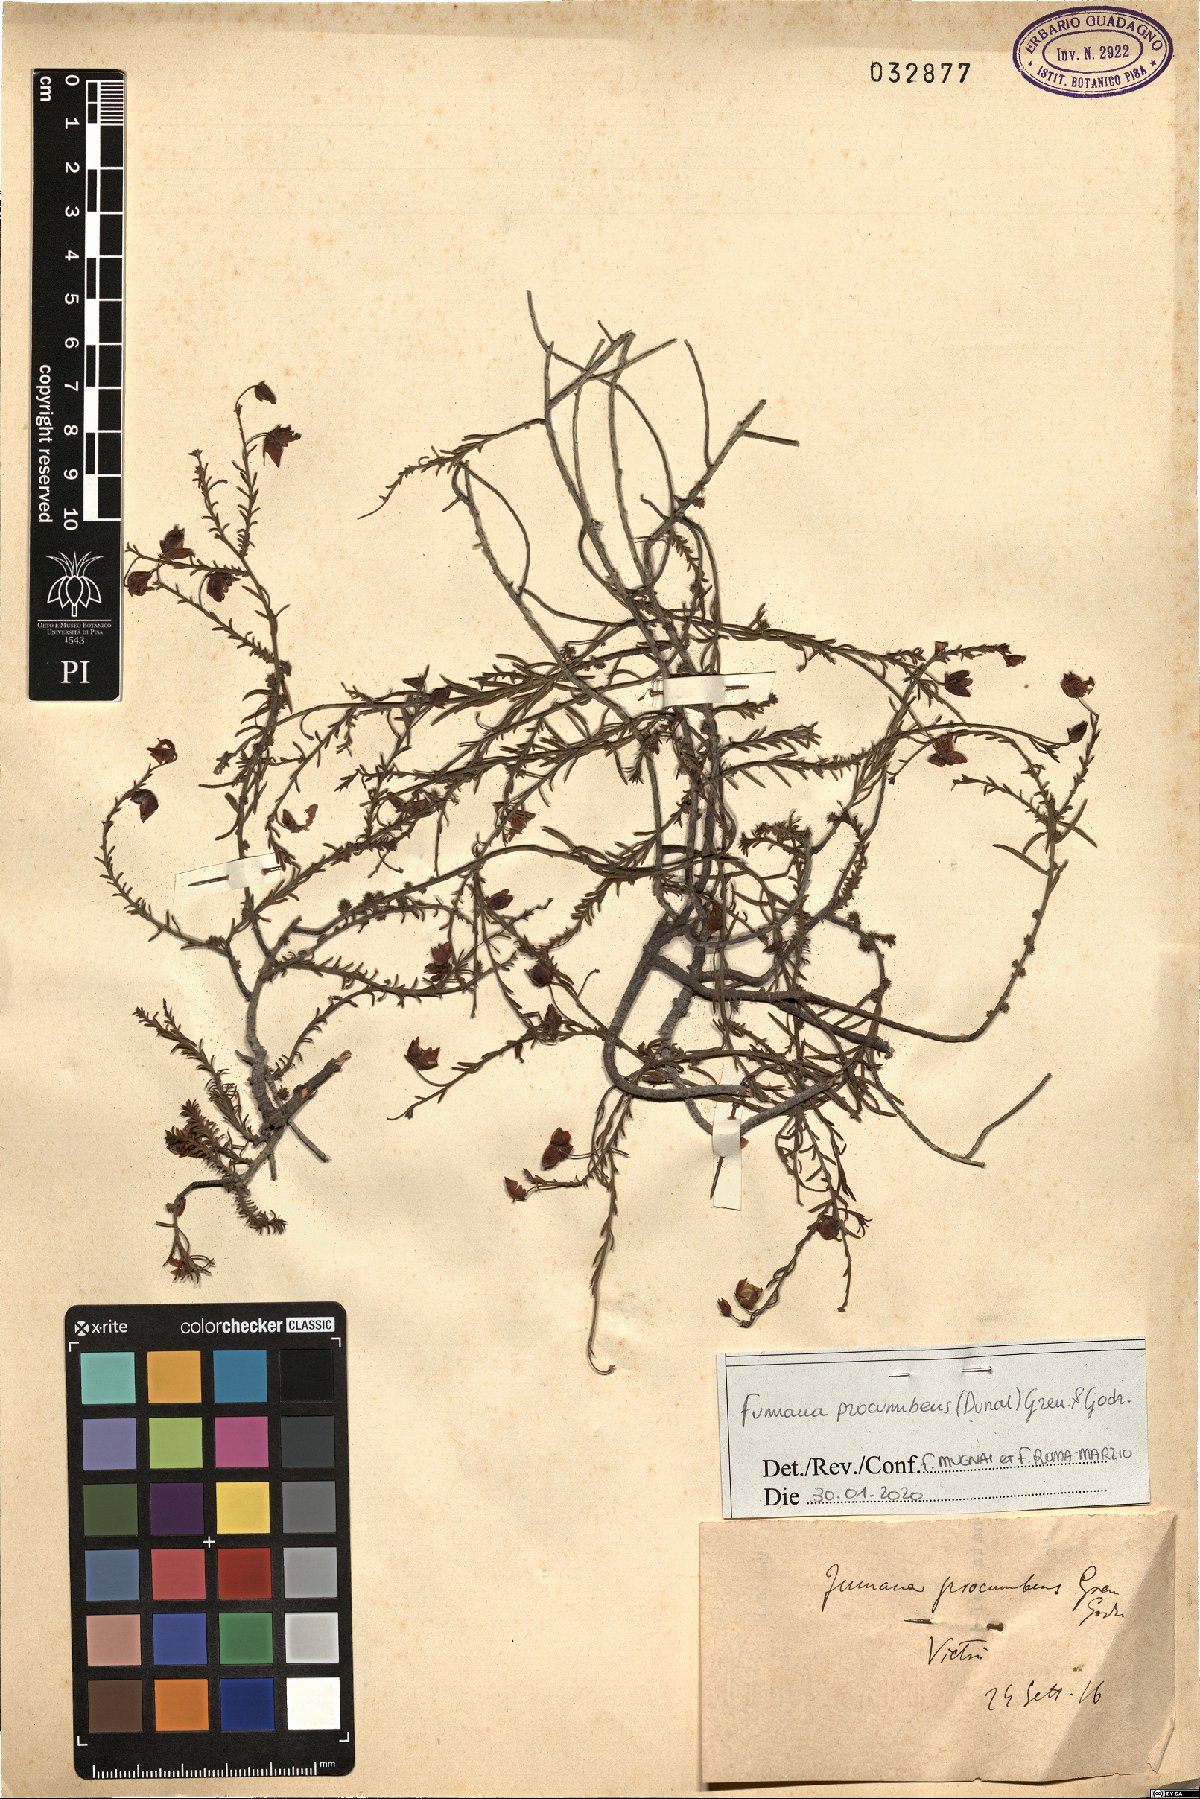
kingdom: Plantae
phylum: Tracheophyta
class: Magnoliopsida
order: Malvales
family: Cistaceae
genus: Fumana
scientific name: Fumana procumbens
